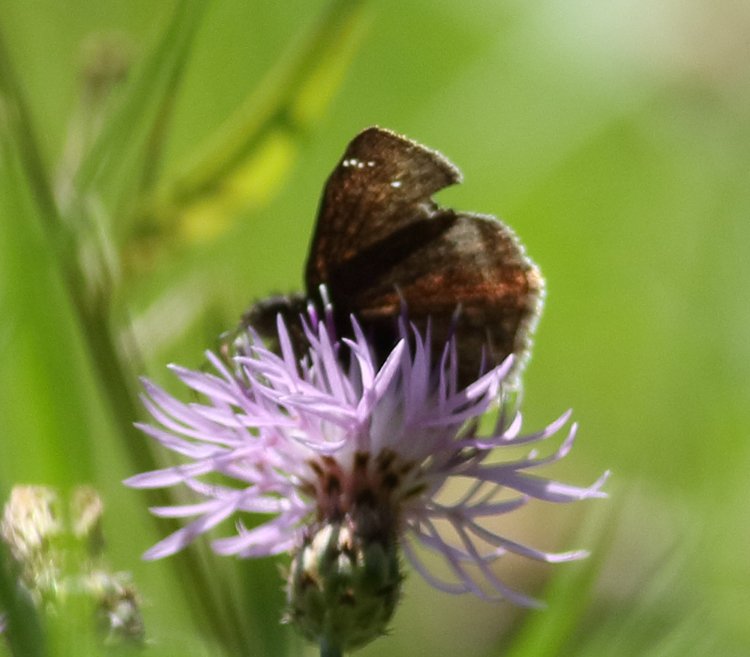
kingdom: Animalia
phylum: Arthropoda
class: Insecta
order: Lepidoptera
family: Hesperiidae
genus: Erynnis
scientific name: Erynnis
